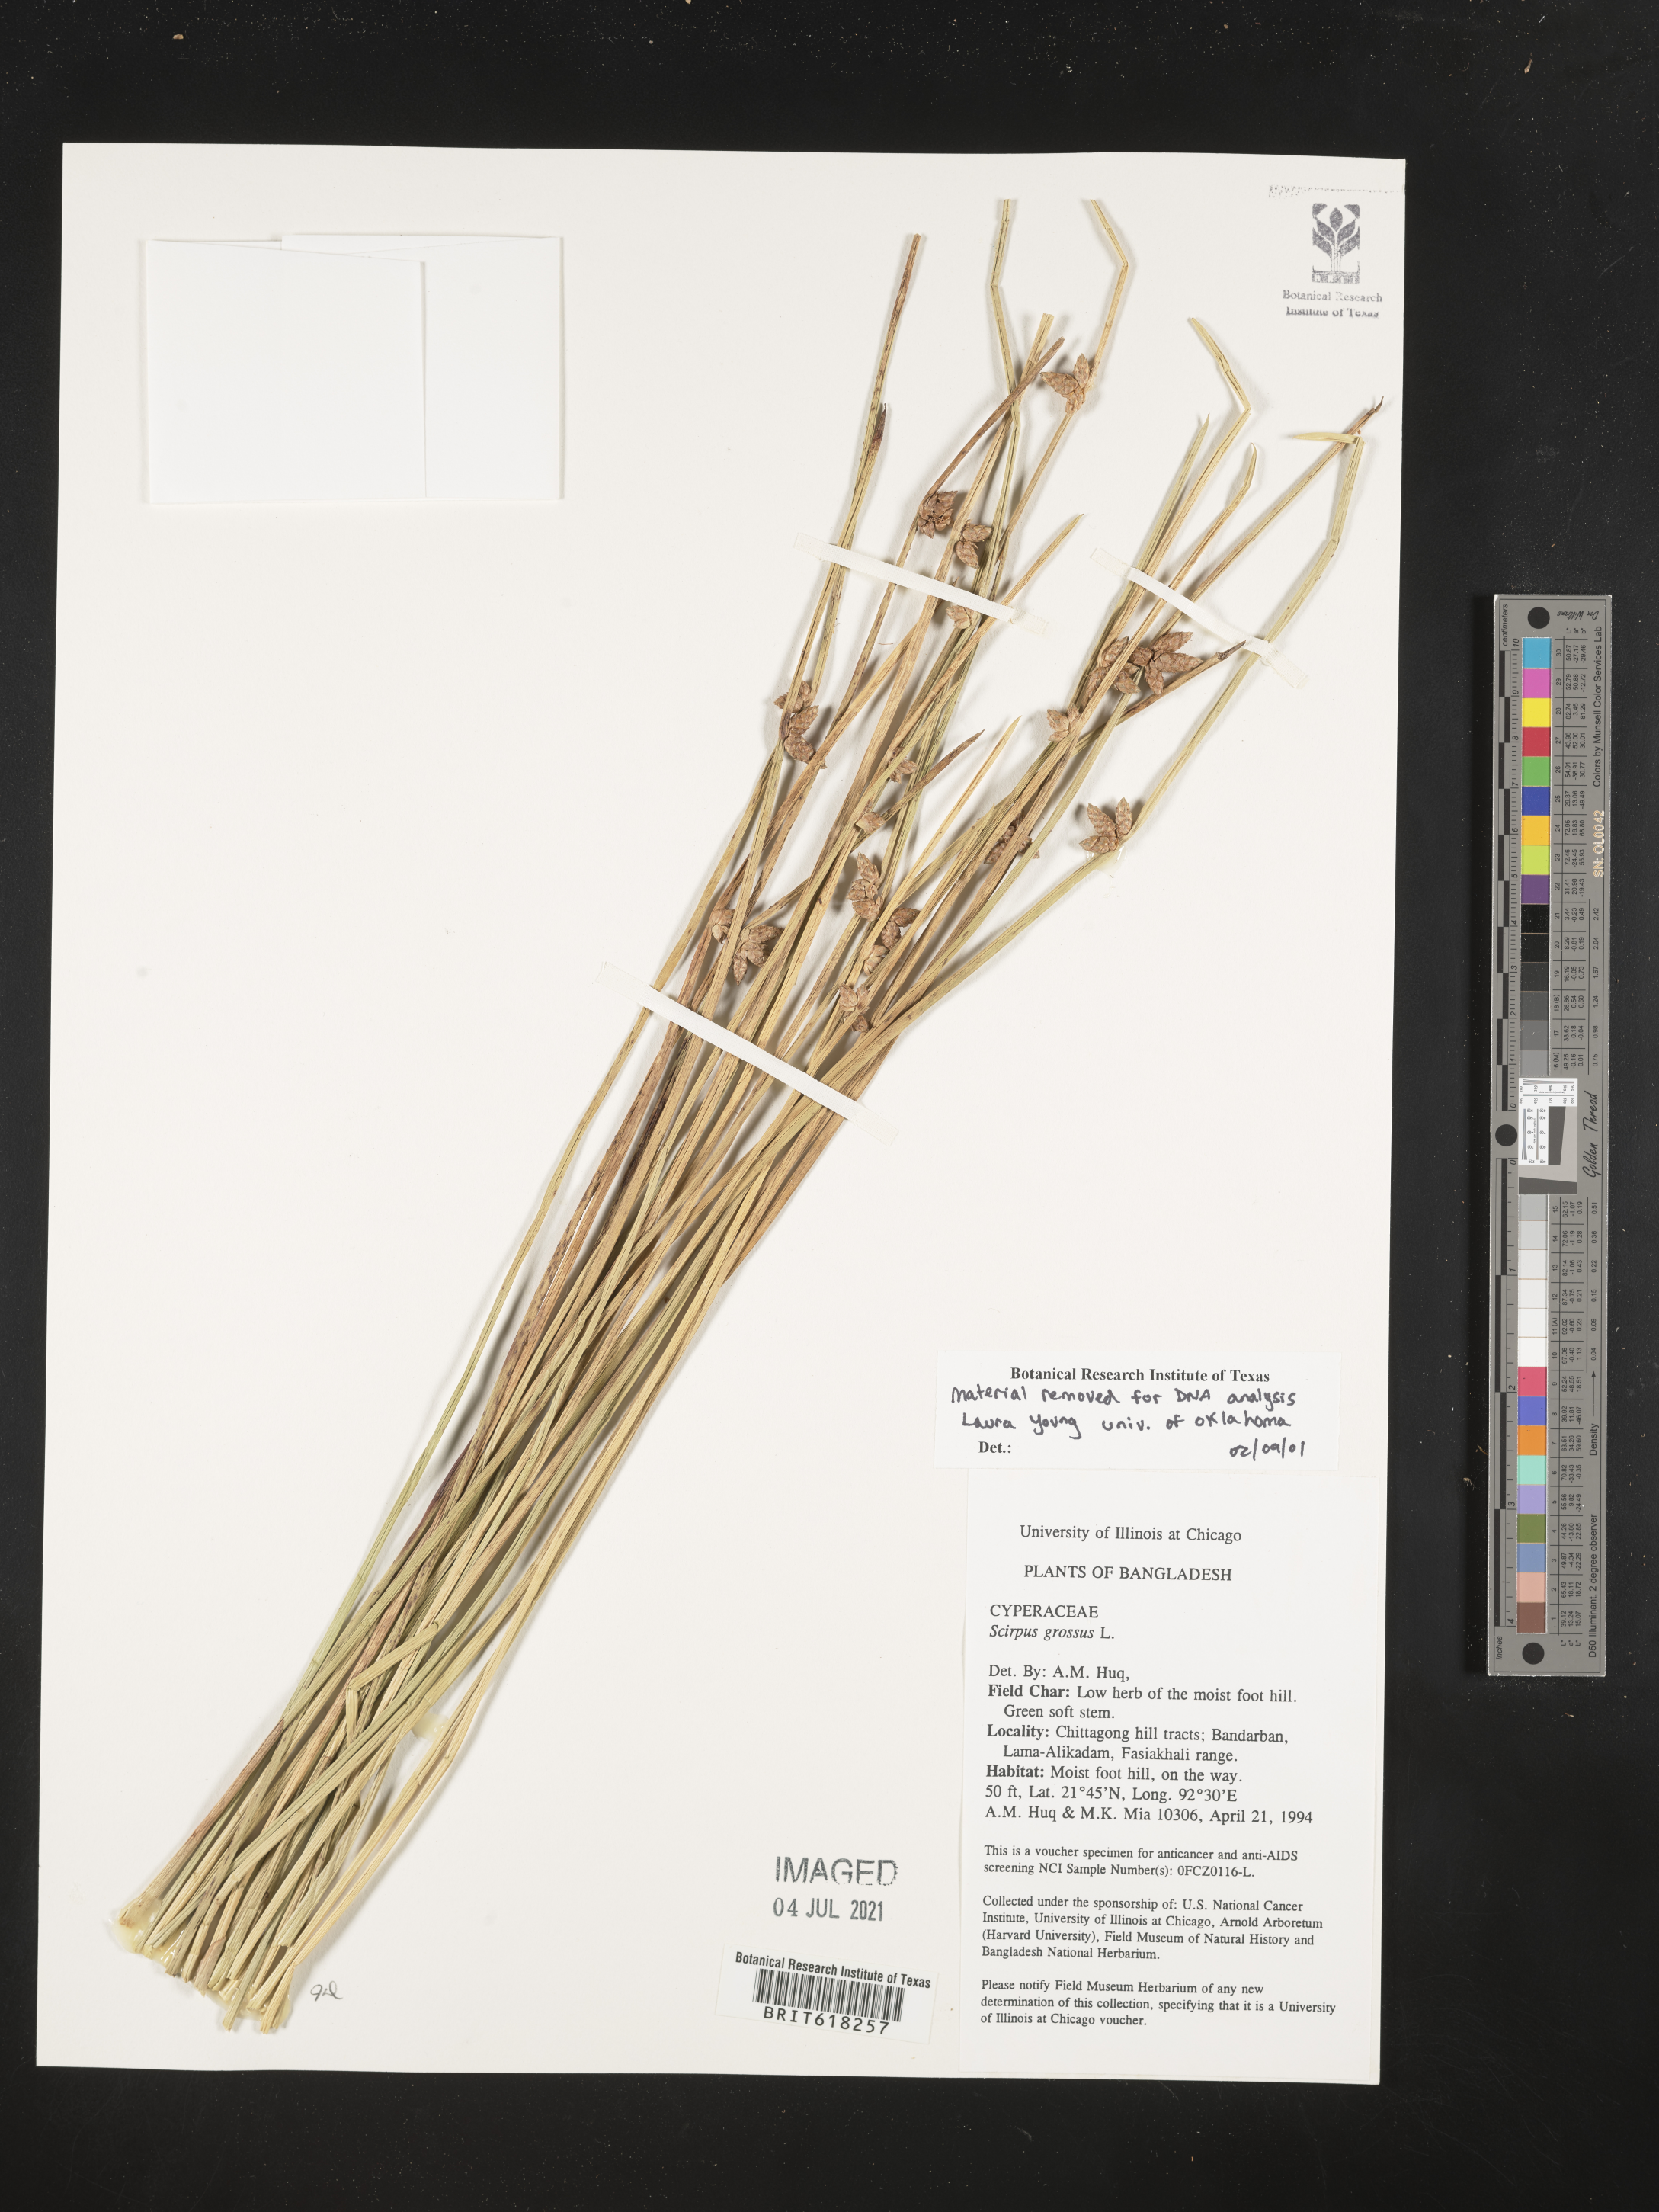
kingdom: Plantae
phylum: Tracheophyta
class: Liliopsida
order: Poales
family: Cyperaceae
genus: Actinoscirpus
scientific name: Actinoscirpus grossus
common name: Giant bur rush
